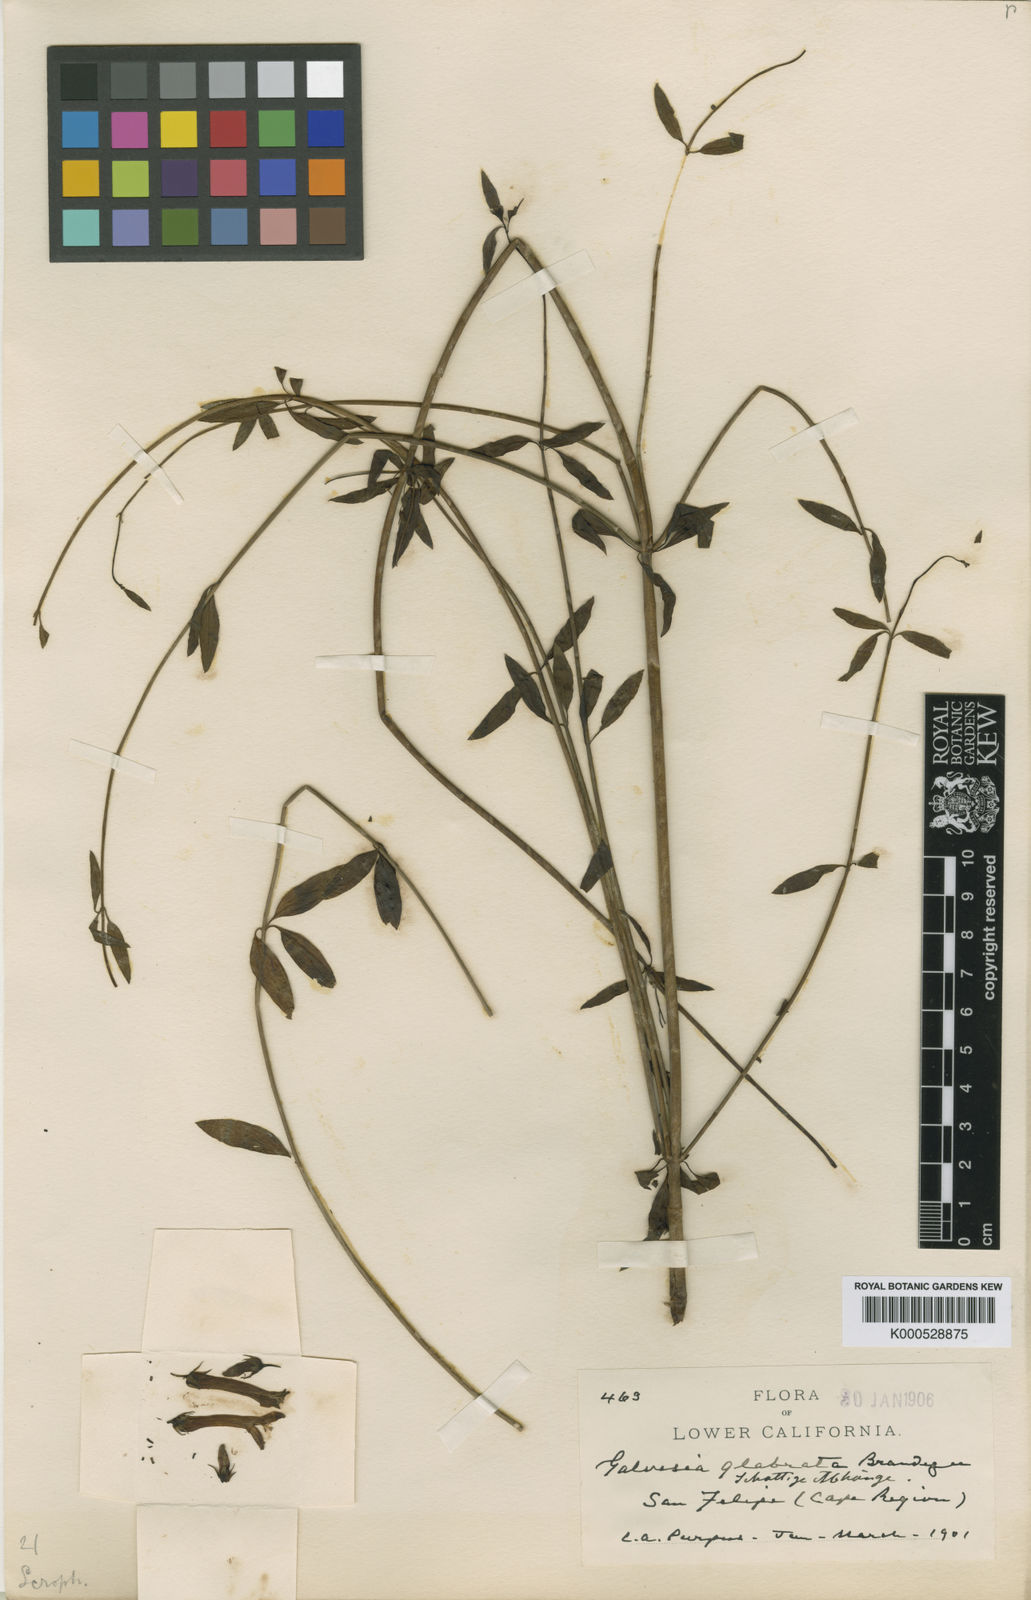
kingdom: Plantae
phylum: Tracheophyta
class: Magnoliopsida
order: Lamiales
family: Plantaginaceae
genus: Galvezia
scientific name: Galvezia
